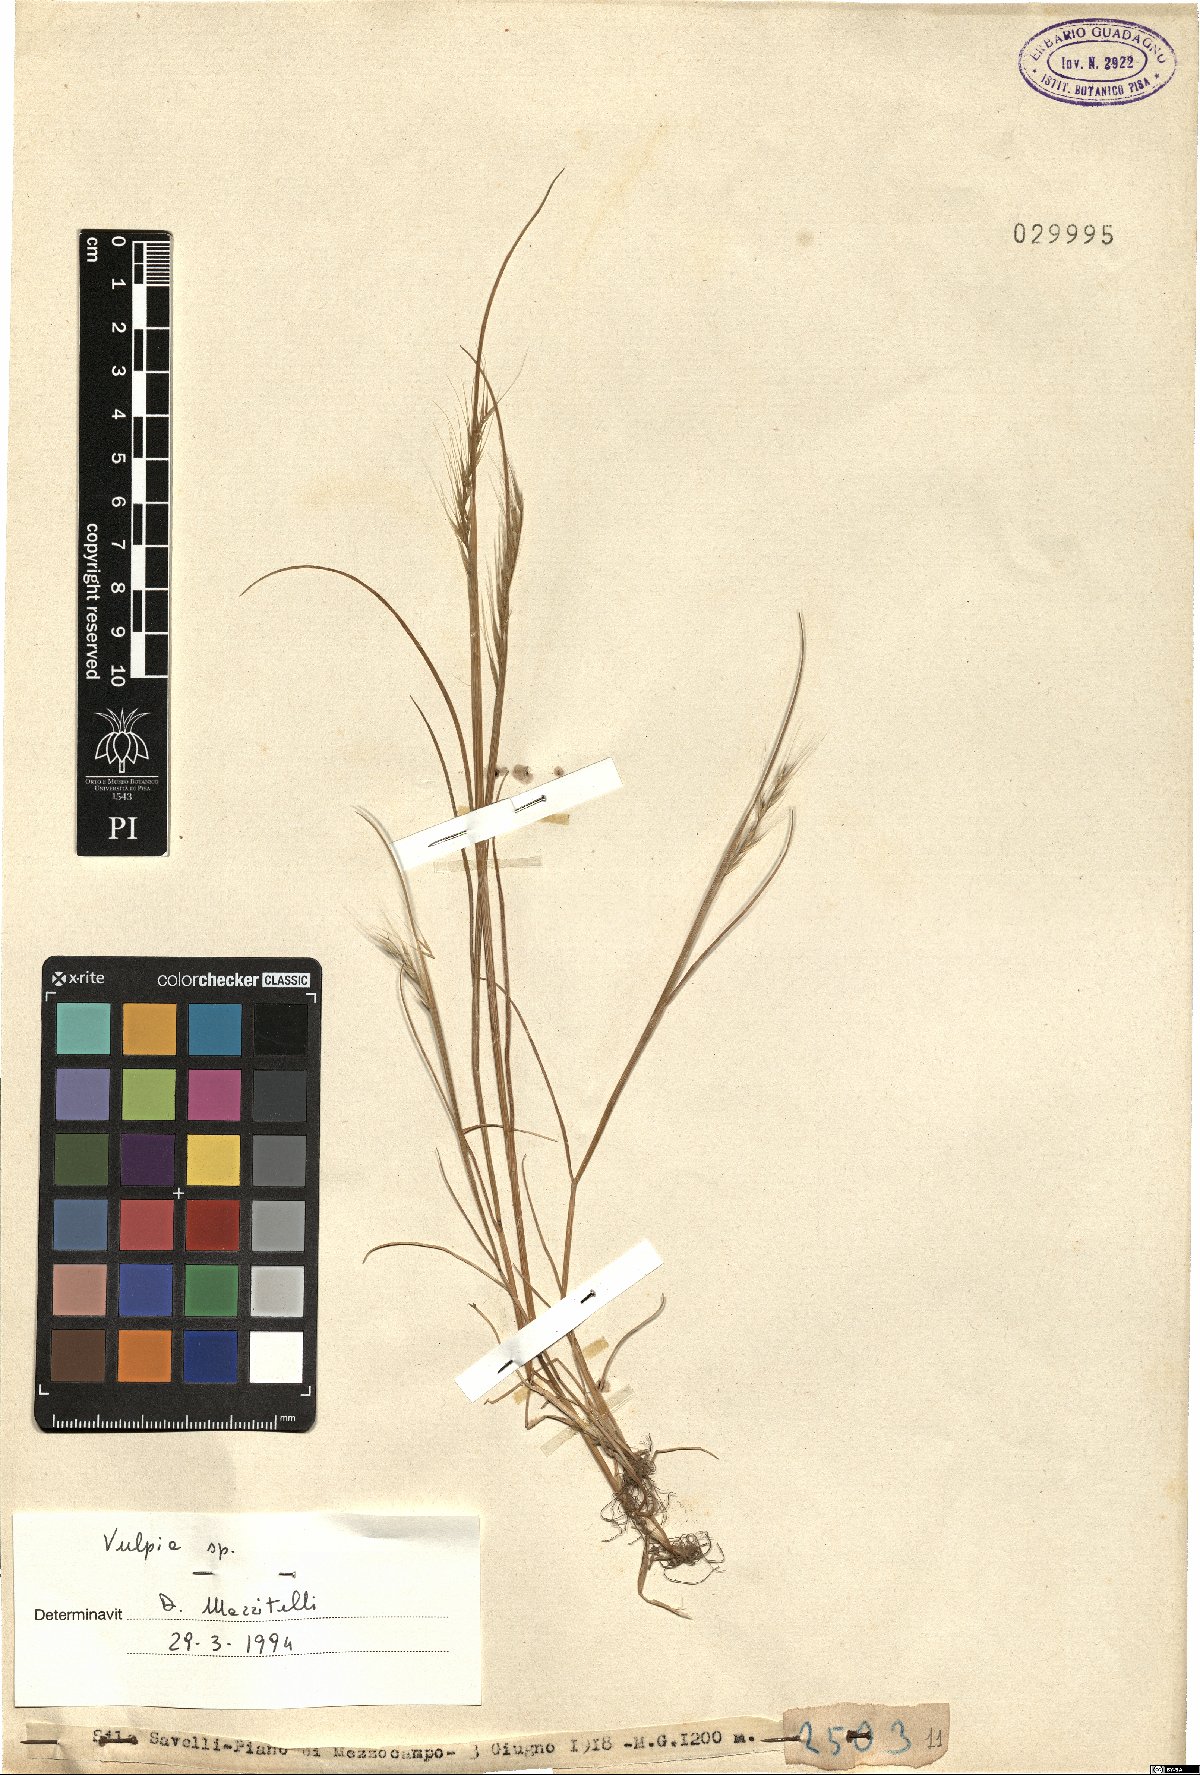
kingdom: Plantae
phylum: Tracheophyta
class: Liliopsida
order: Poales
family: Poaceae
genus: Festuca
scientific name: Festuca
